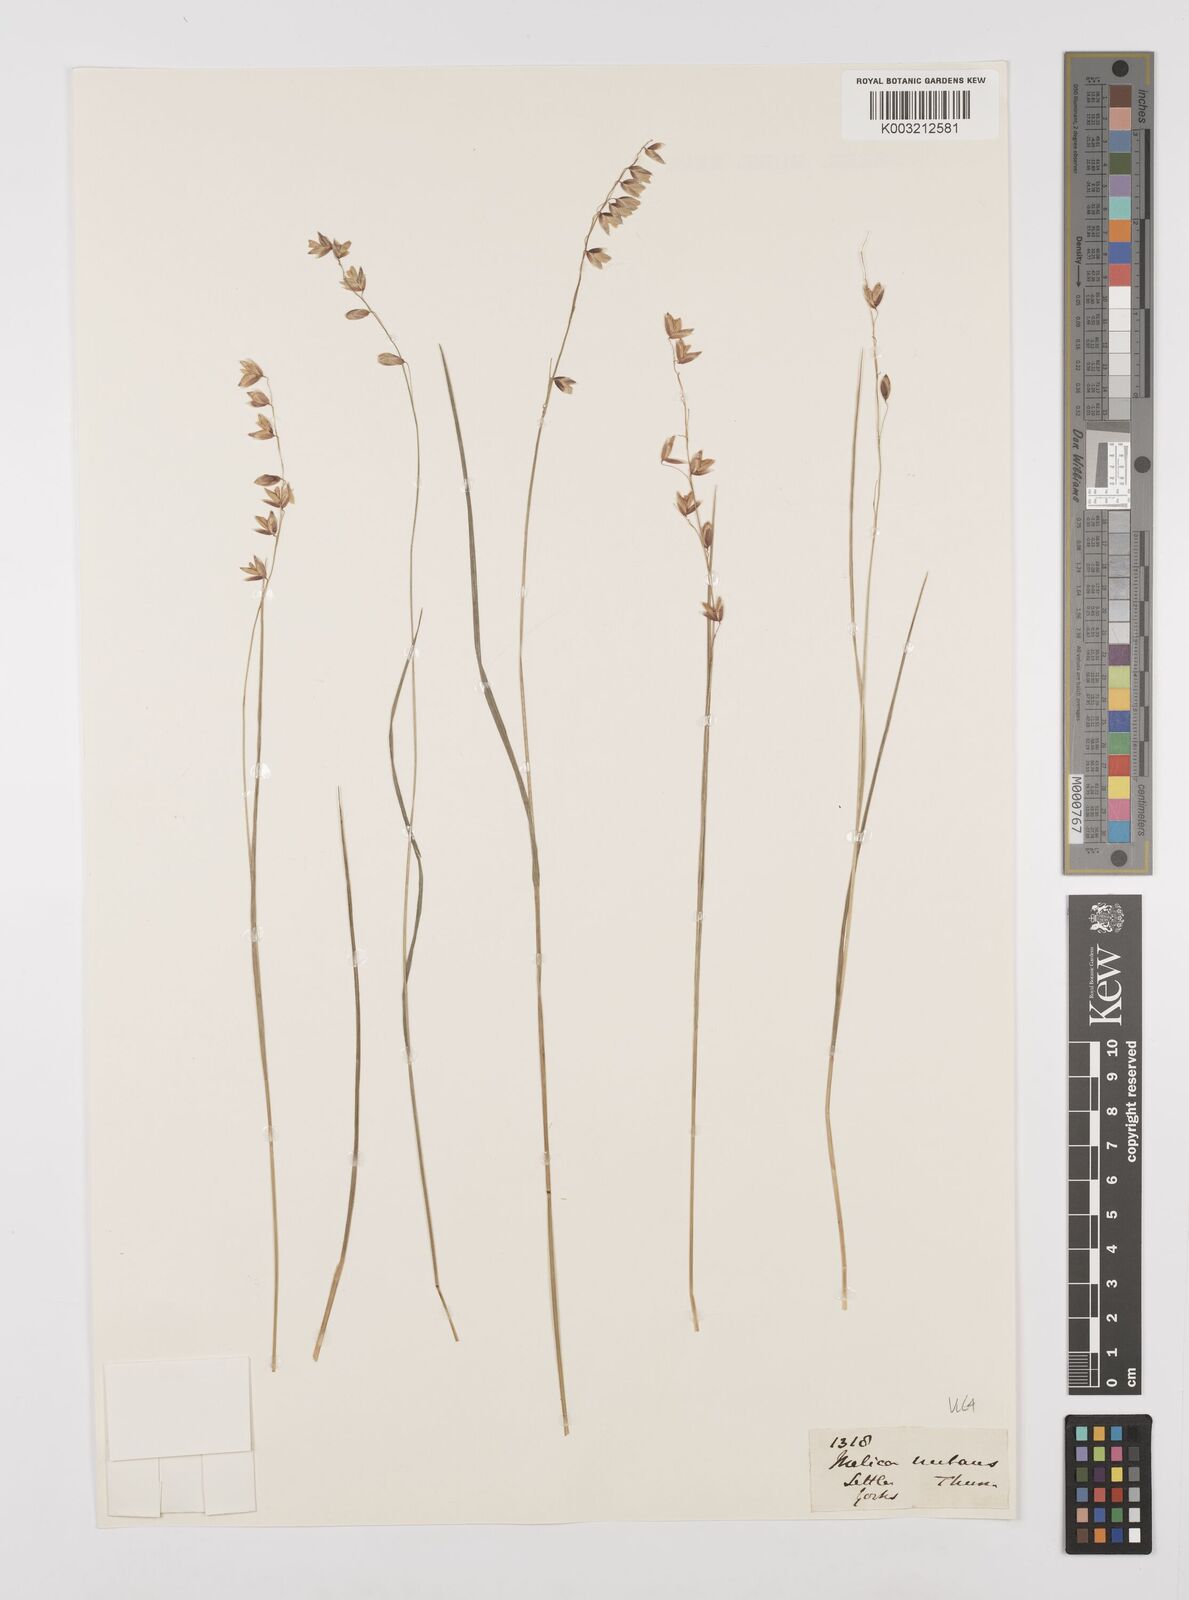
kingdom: Plantae
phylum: Tracheophyta
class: Liliopsida
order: Poales
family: Poaceae
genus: Melica
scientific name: Melica
